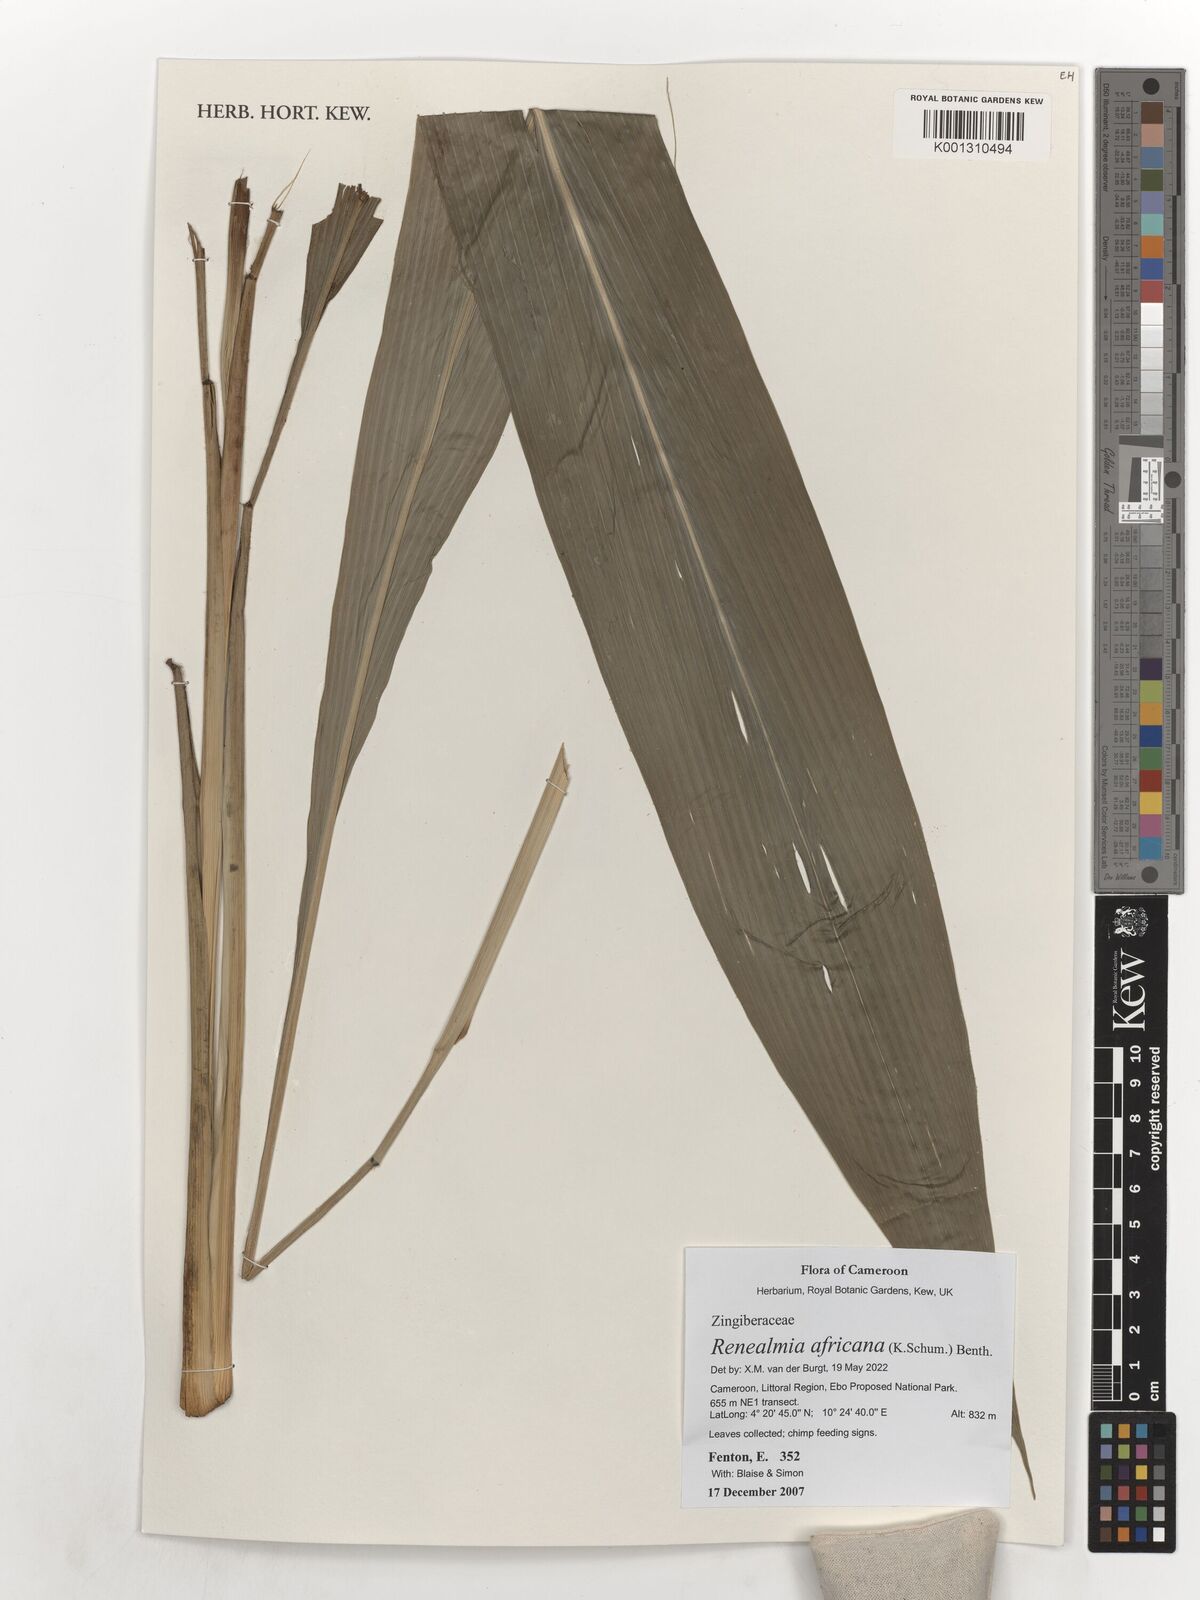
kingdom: Plantae
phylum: Tracheophyta
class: Liliopsida
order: Zingiberales
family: Zingiberaceae
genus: Renealmia
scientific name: Renealmia africana
